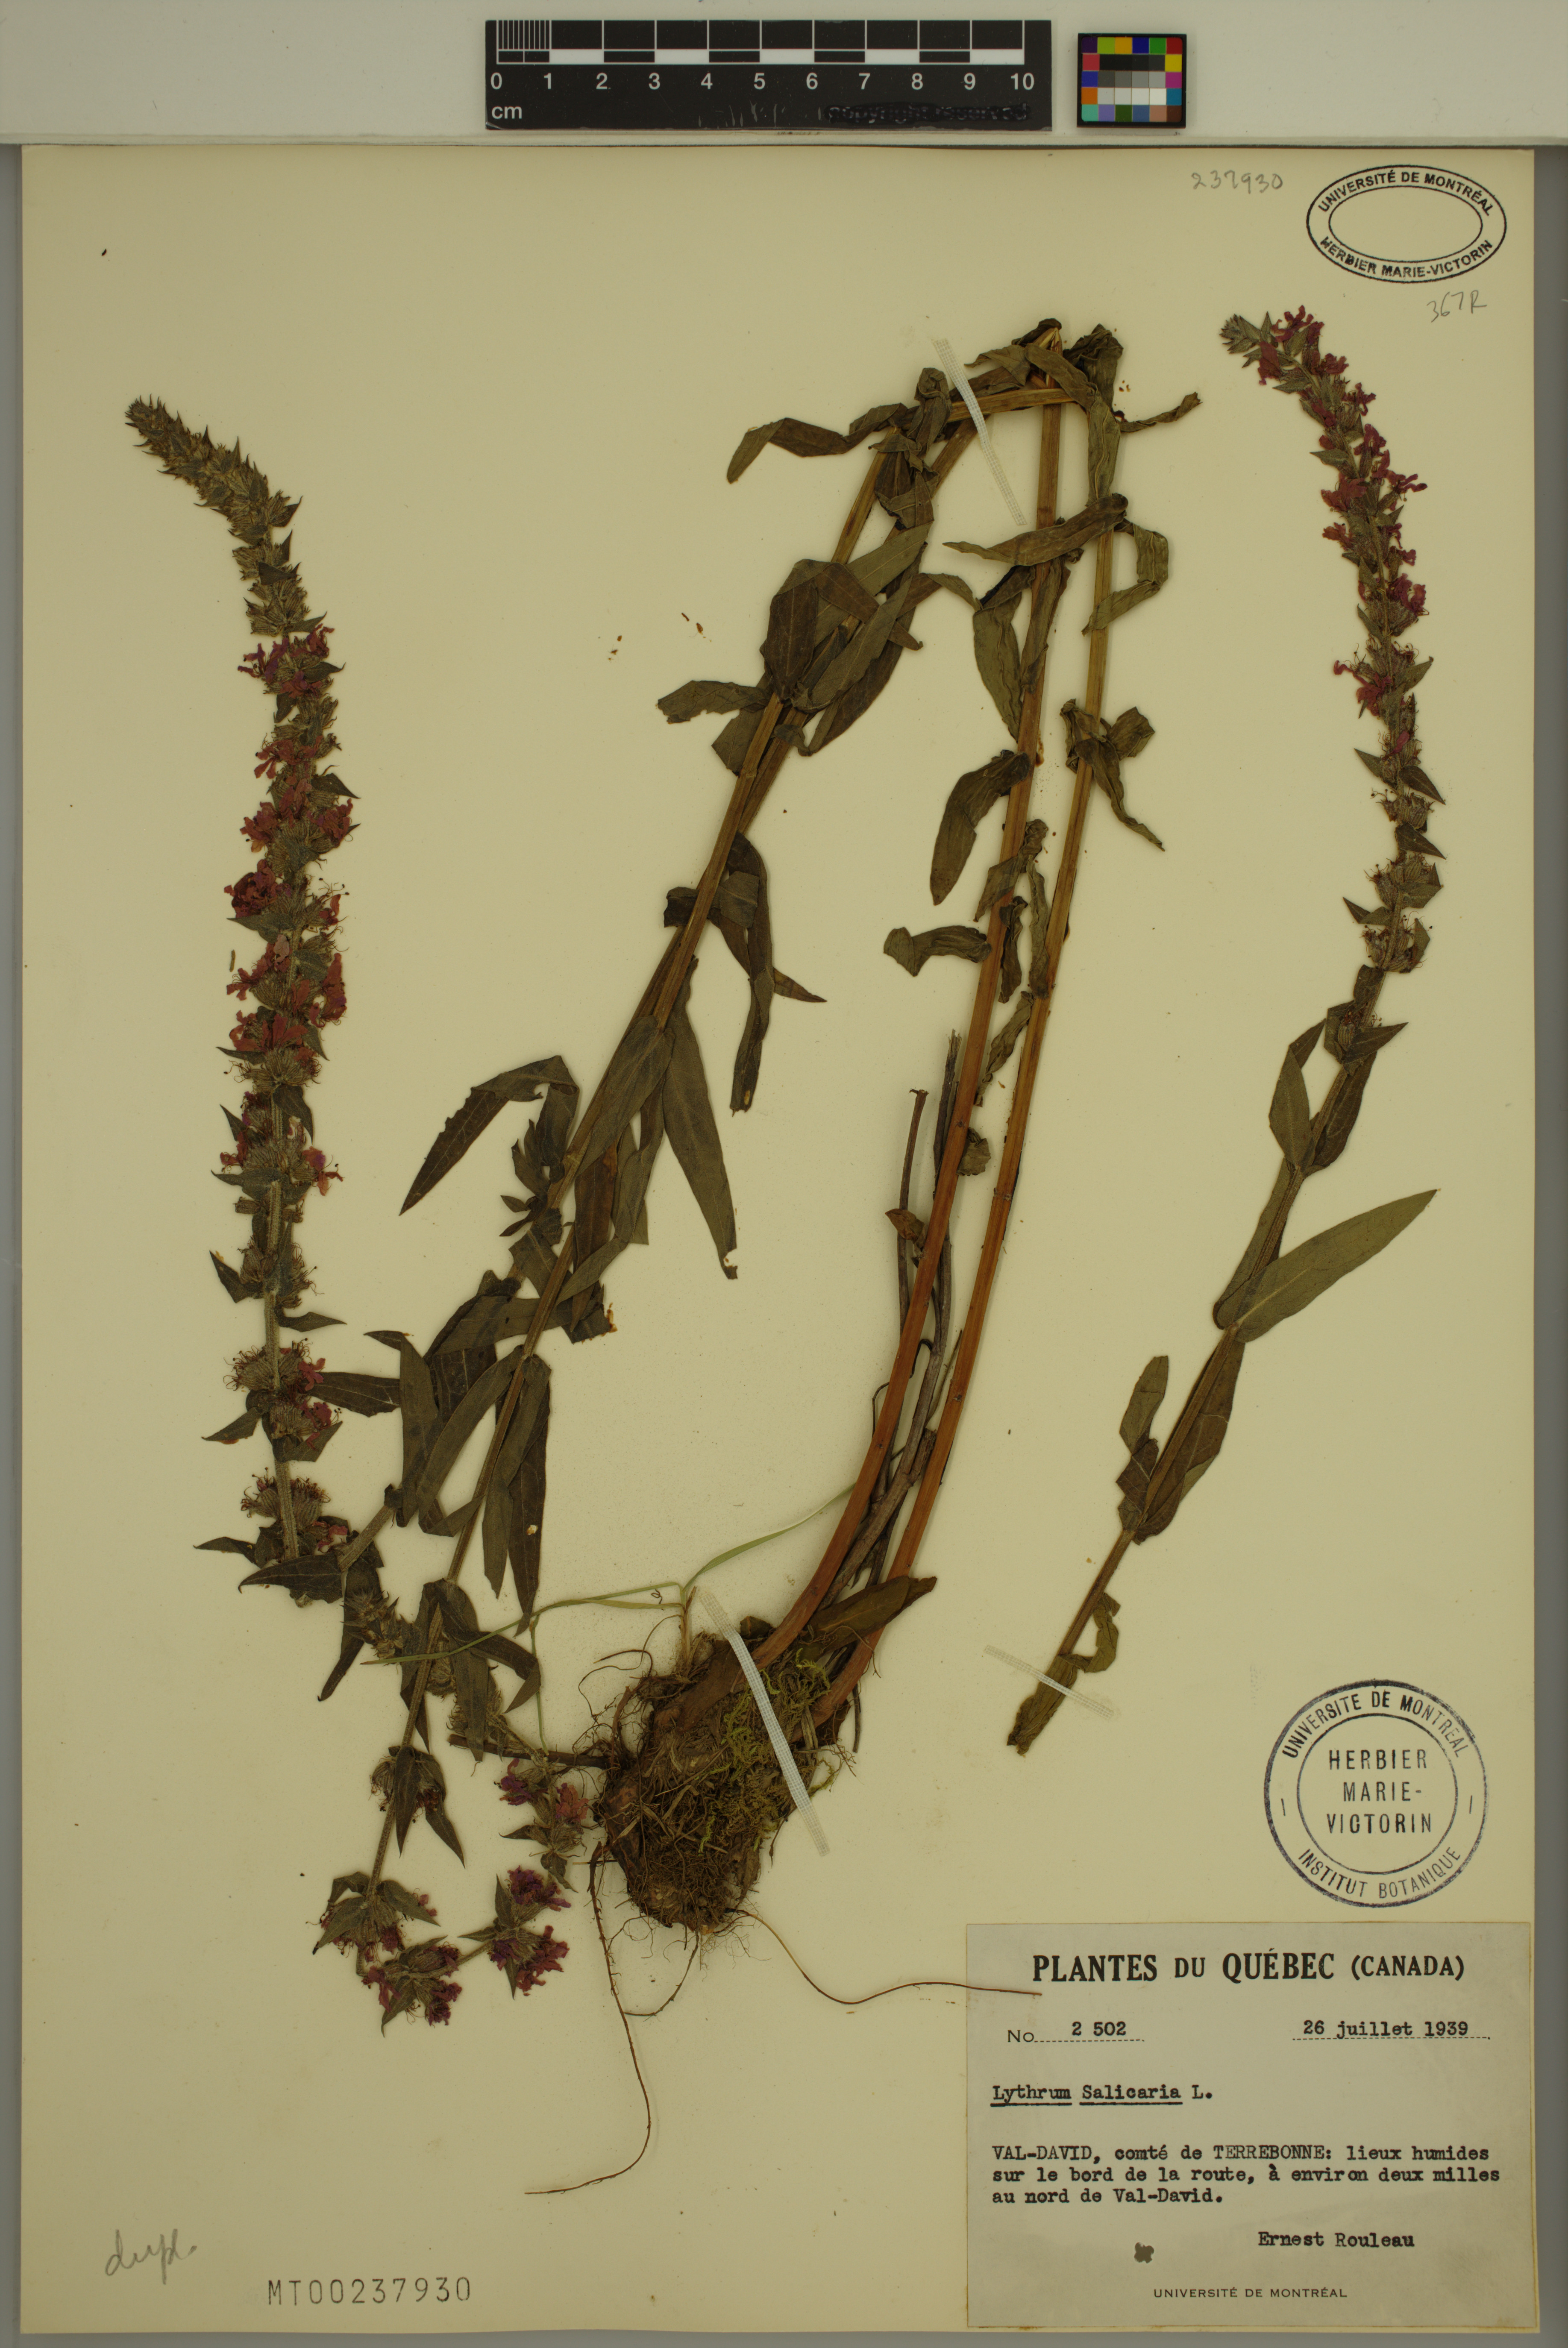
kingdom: Plantae
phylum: Tracheophyta
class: Magnoliopsida
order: Myrtales
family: Lythraceae
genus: Lythrum
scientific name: Lythrum salicaria
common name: Purple loosestrife
